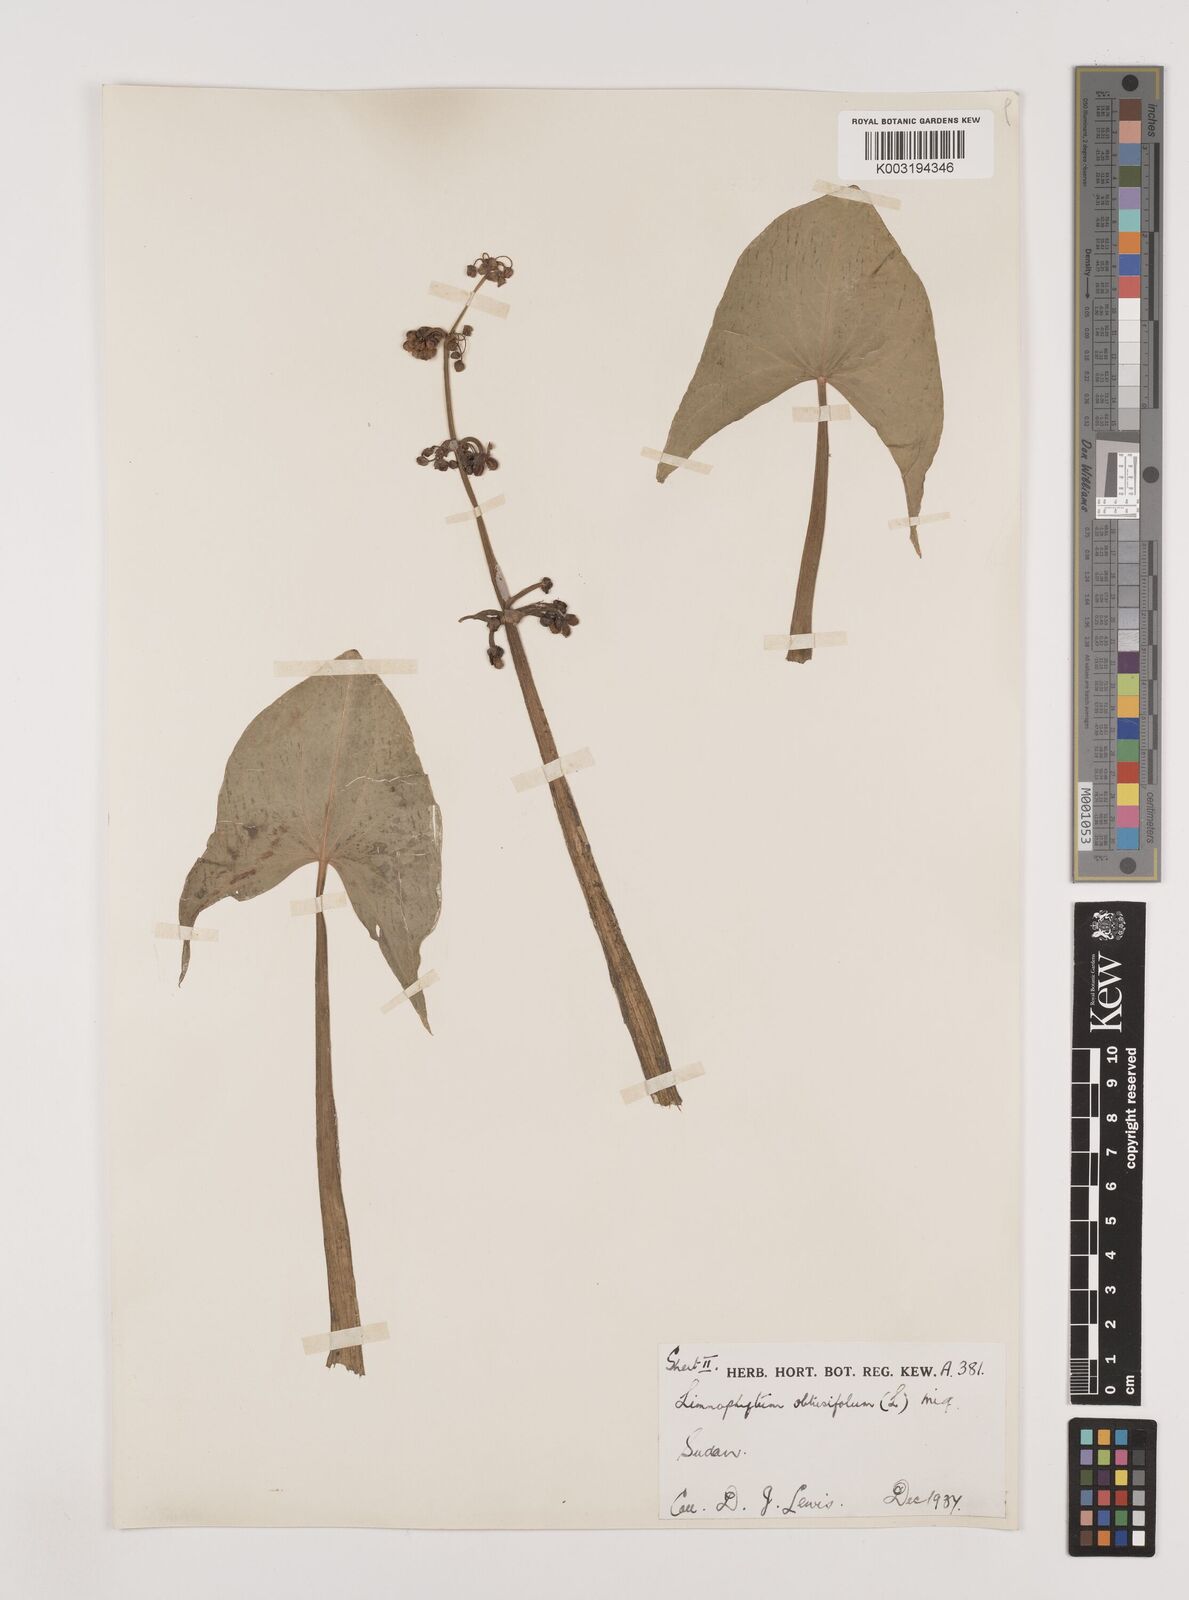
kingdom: Plantae
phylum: Tracheophyta
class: Liliopsida
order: Alismatales
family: Alismataceae
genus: Limnophyton
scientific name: Limnophyton obtusifolium
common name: Arrow head
